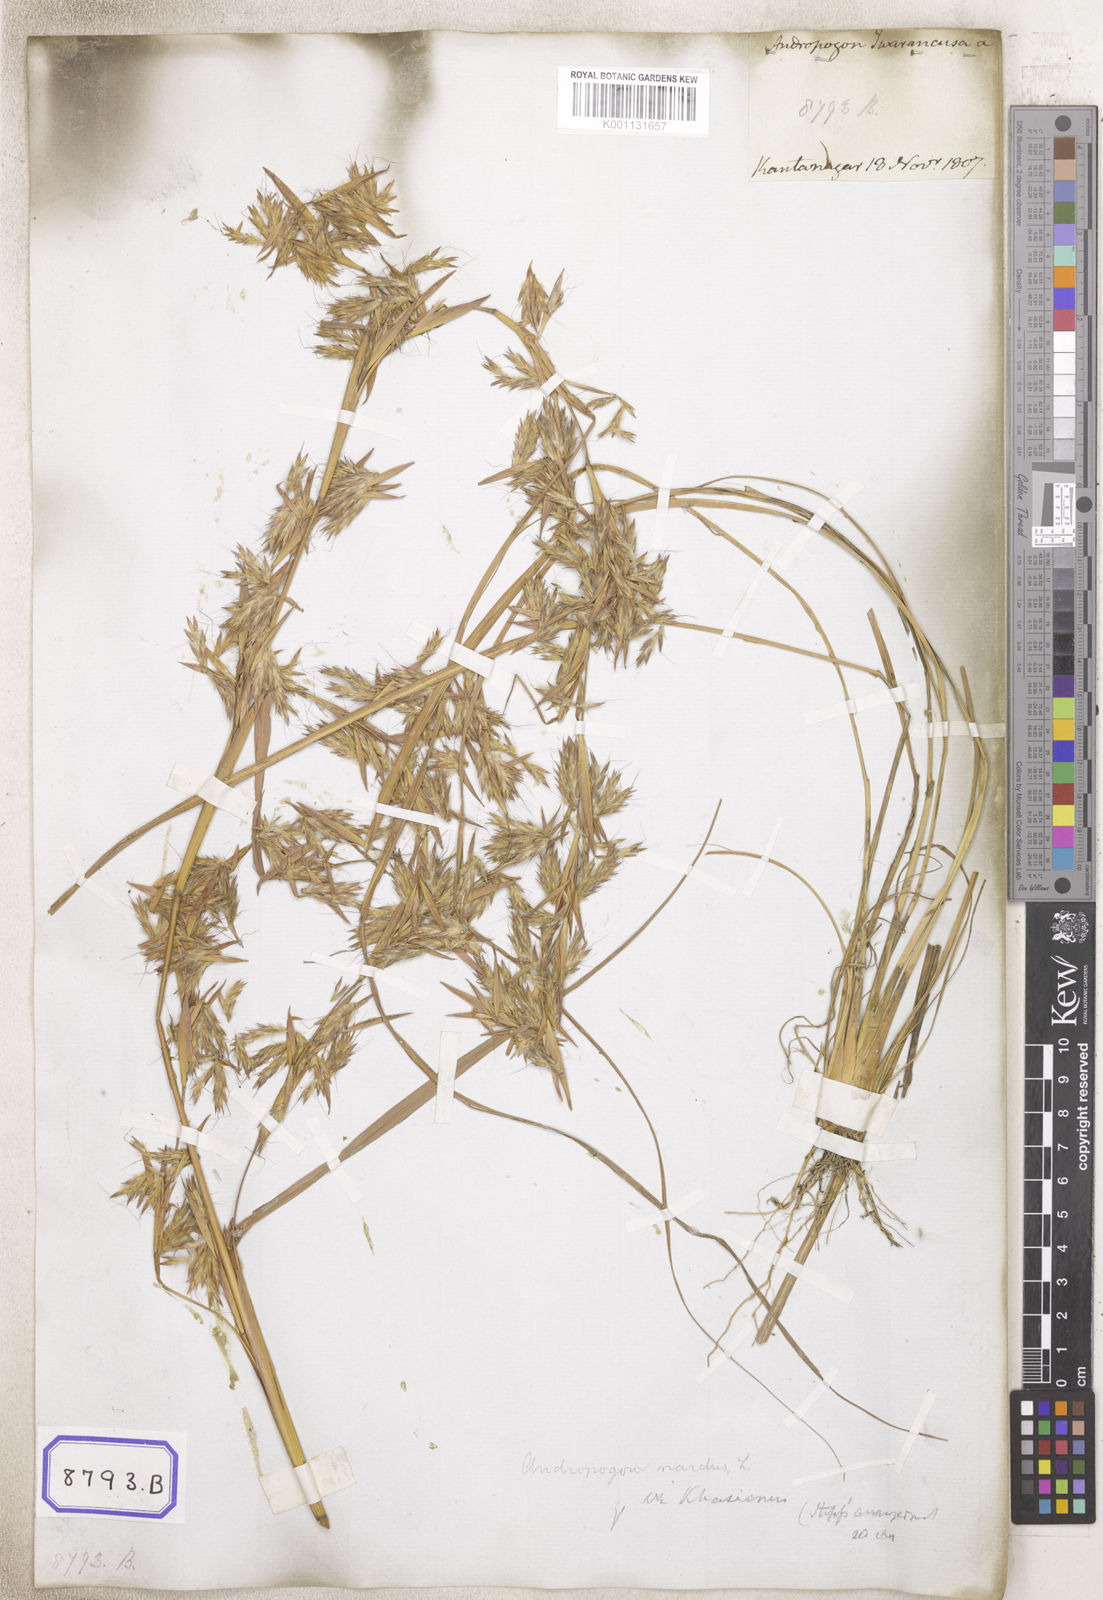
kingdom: Plantae
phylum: Tracheophyta
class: Liliopsida
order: Poales
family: Poaceae
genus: Cymbopogon
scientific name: Cymbopogon iwarancusa
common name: Iwarancusa grass
